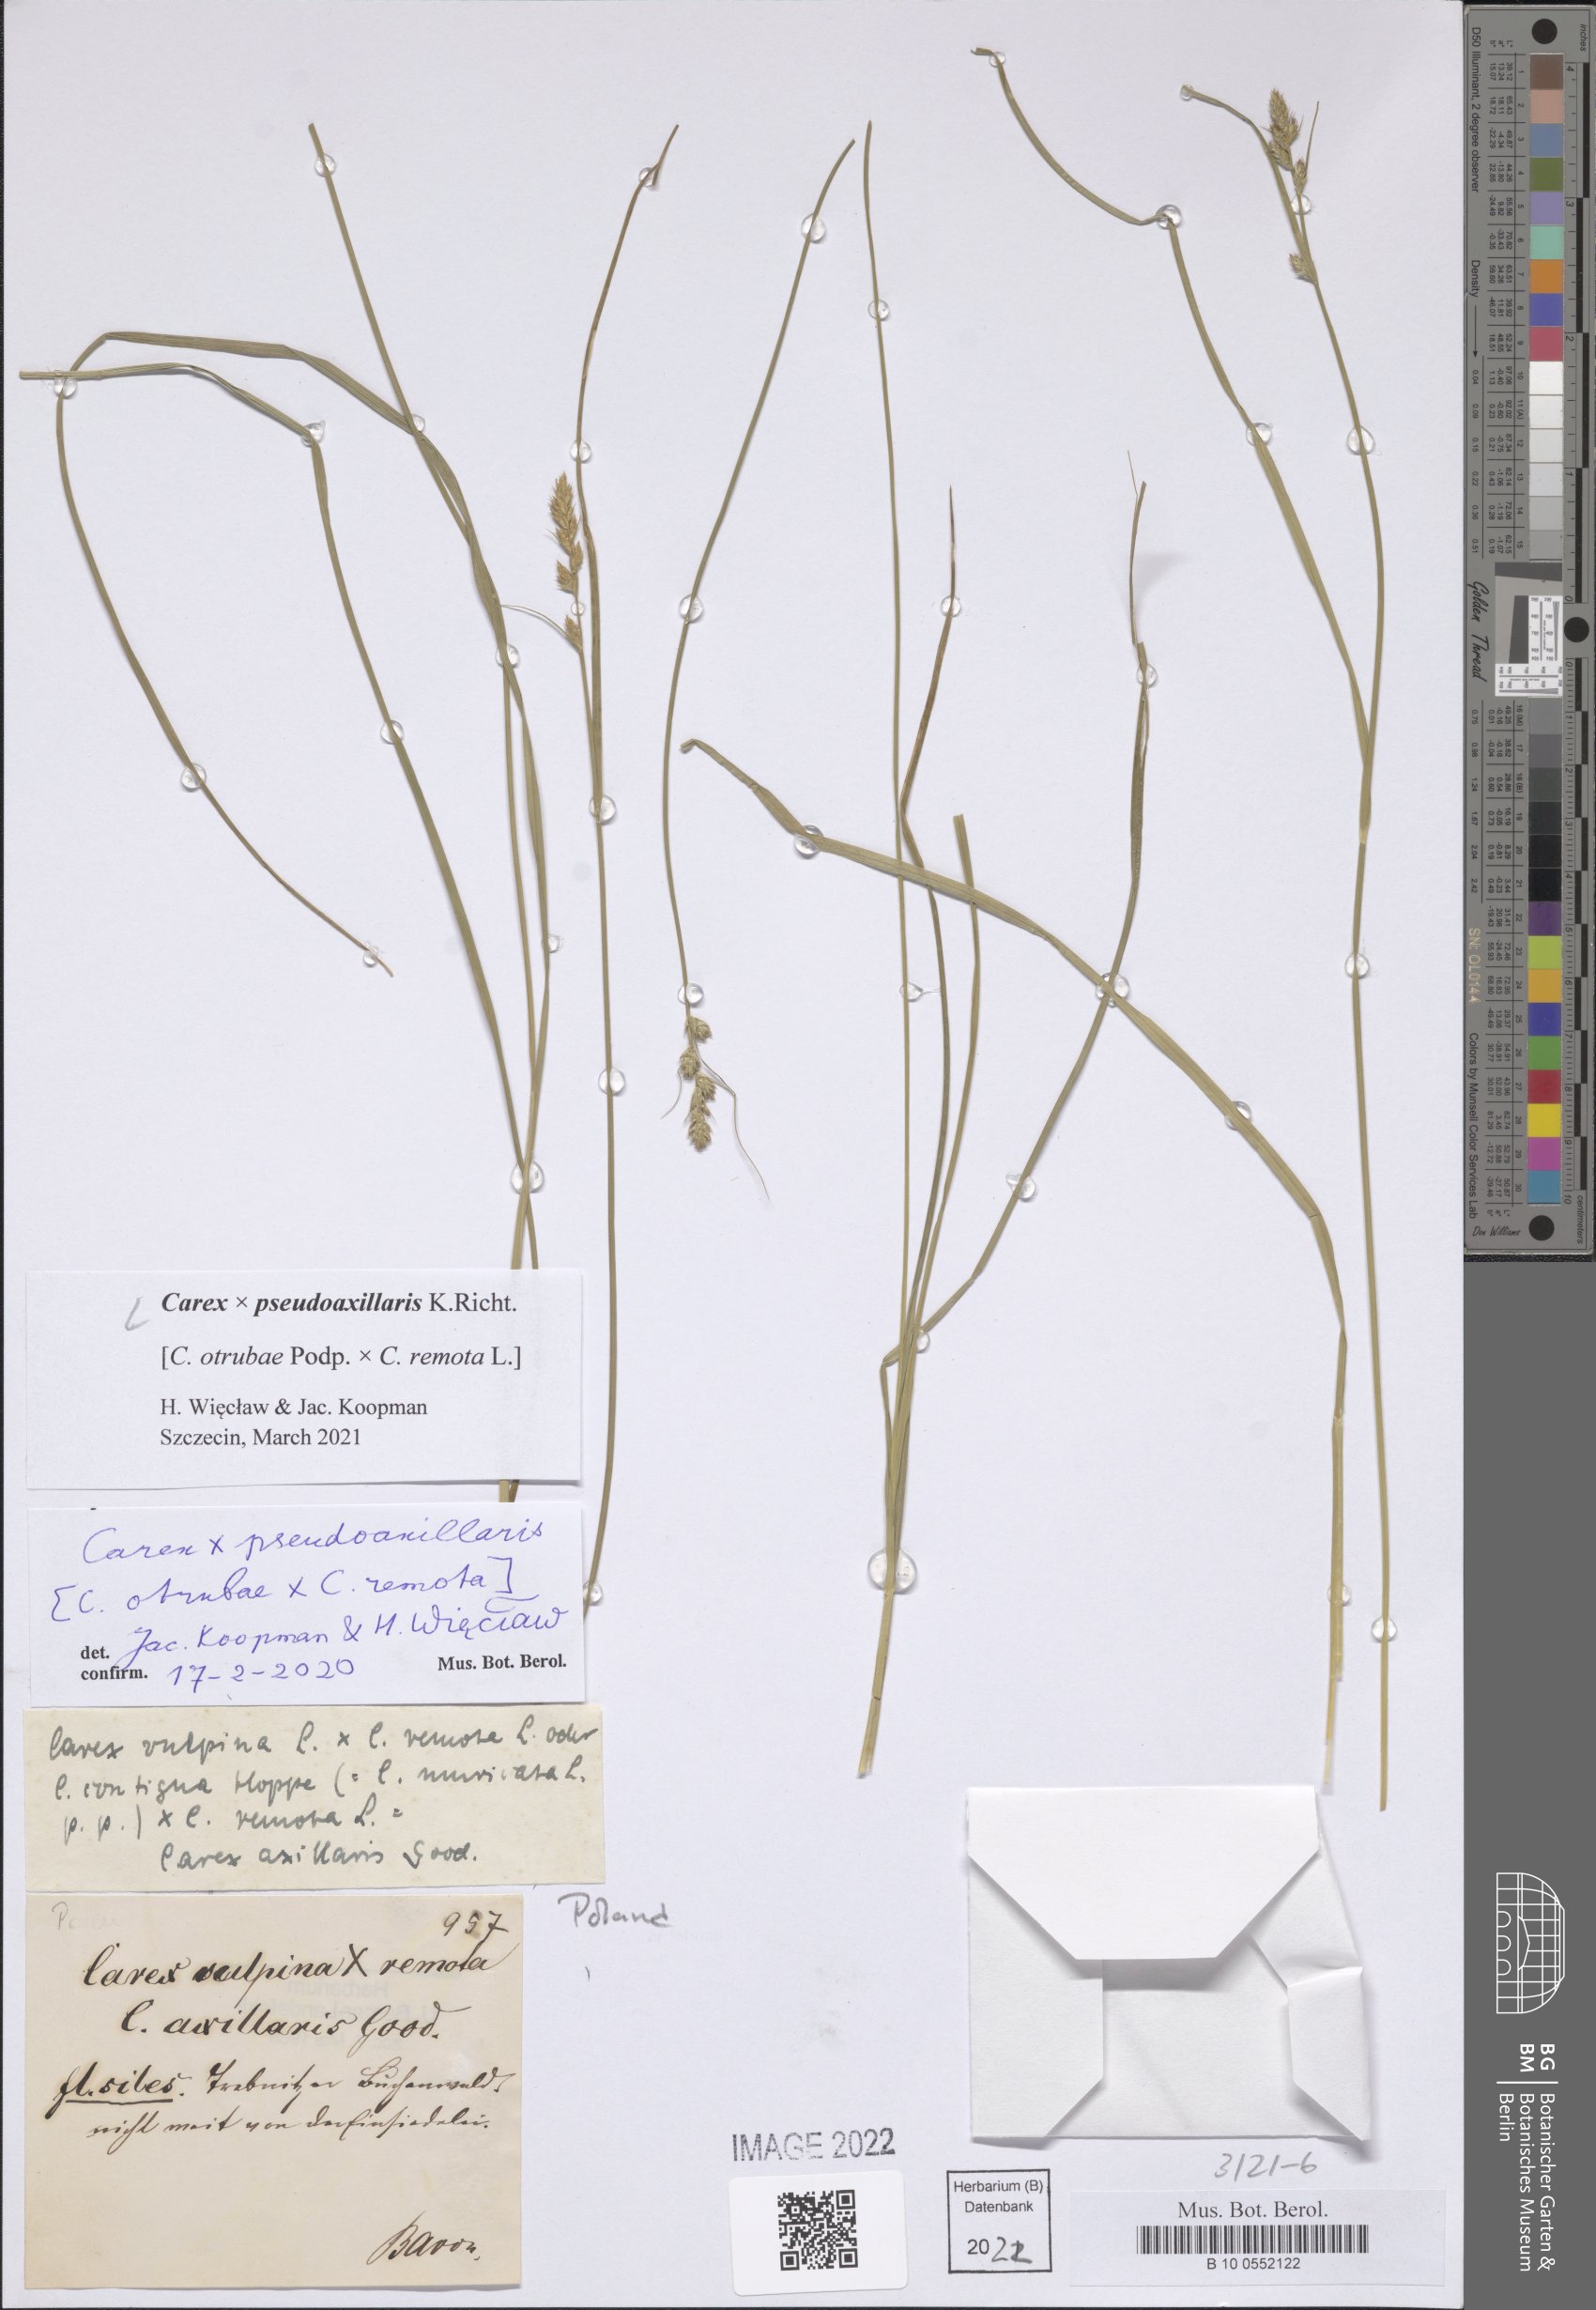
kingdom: Plantae
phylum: Tracheophyta
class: Liliopsida
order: Poales
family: Cyperaceae
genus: Carex
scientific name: Carex pseudoaxillaris
